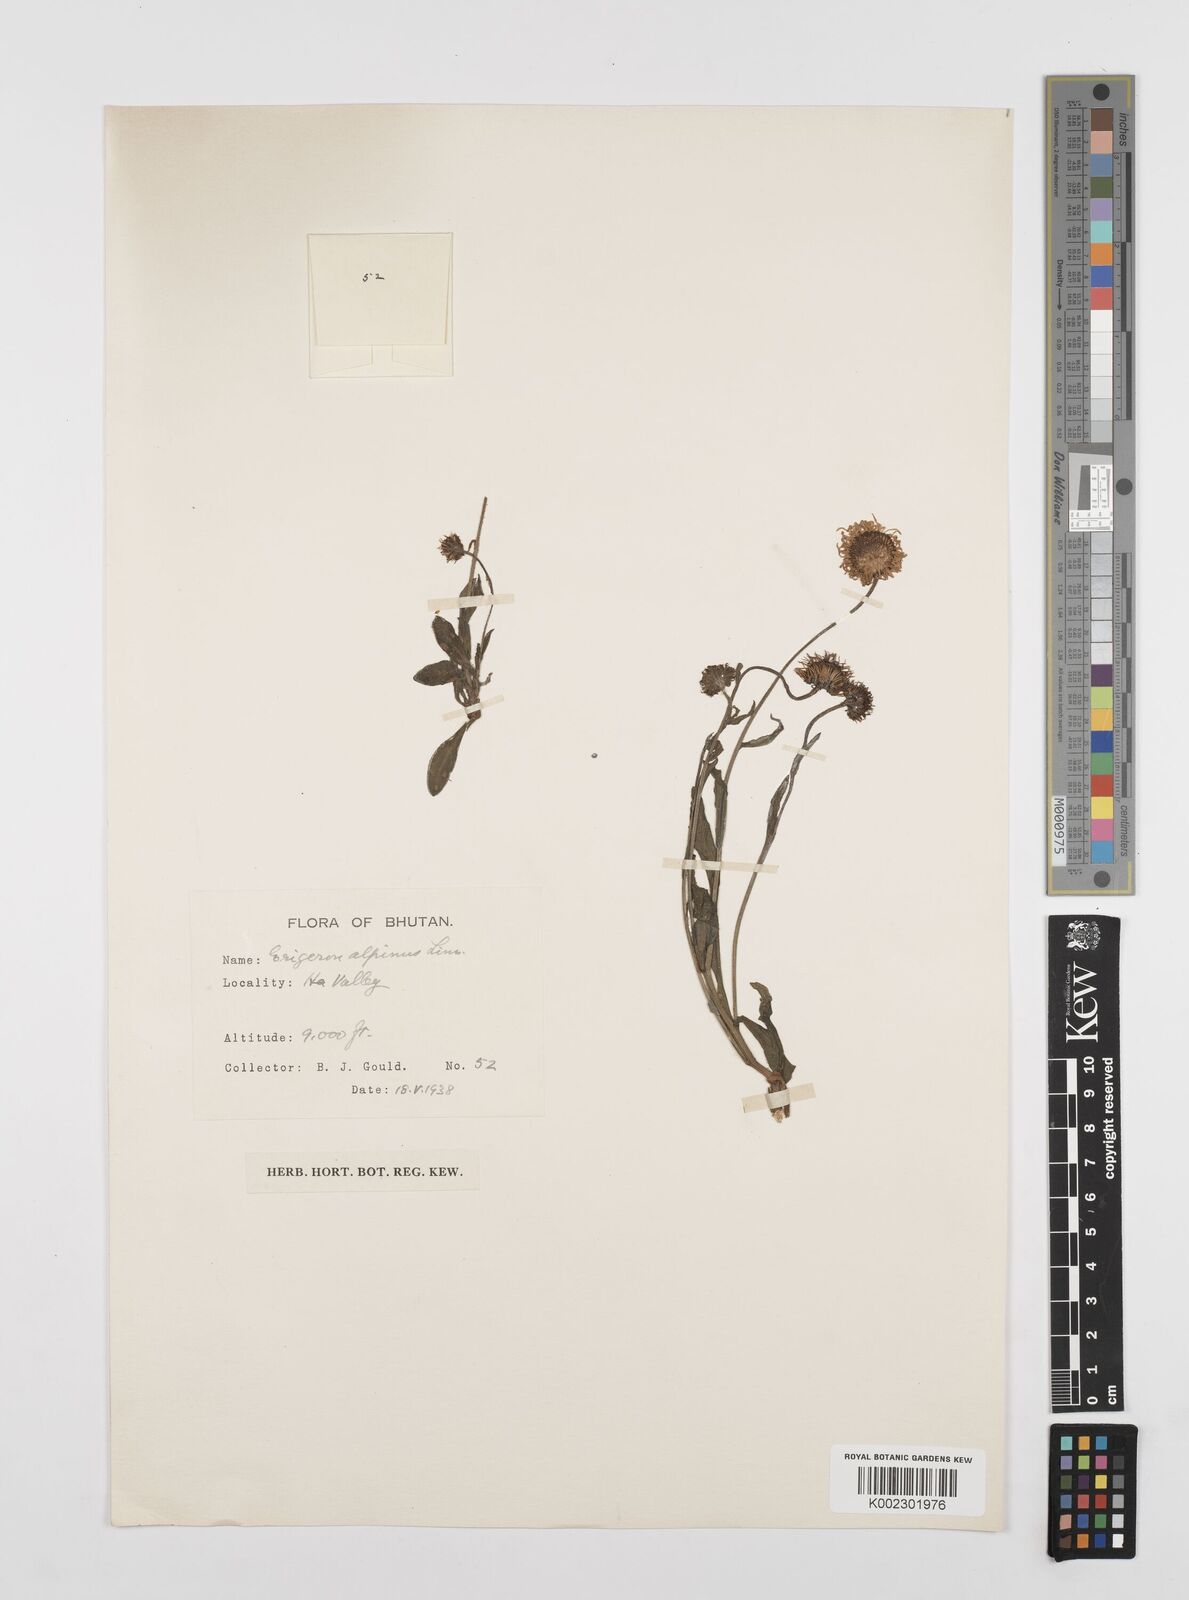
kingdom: Plantae
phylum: Tracheophyta
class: Magnoliopsida
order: Asterales
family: Asteraceae
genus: Erigeron
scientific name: Erigeron alpinus
